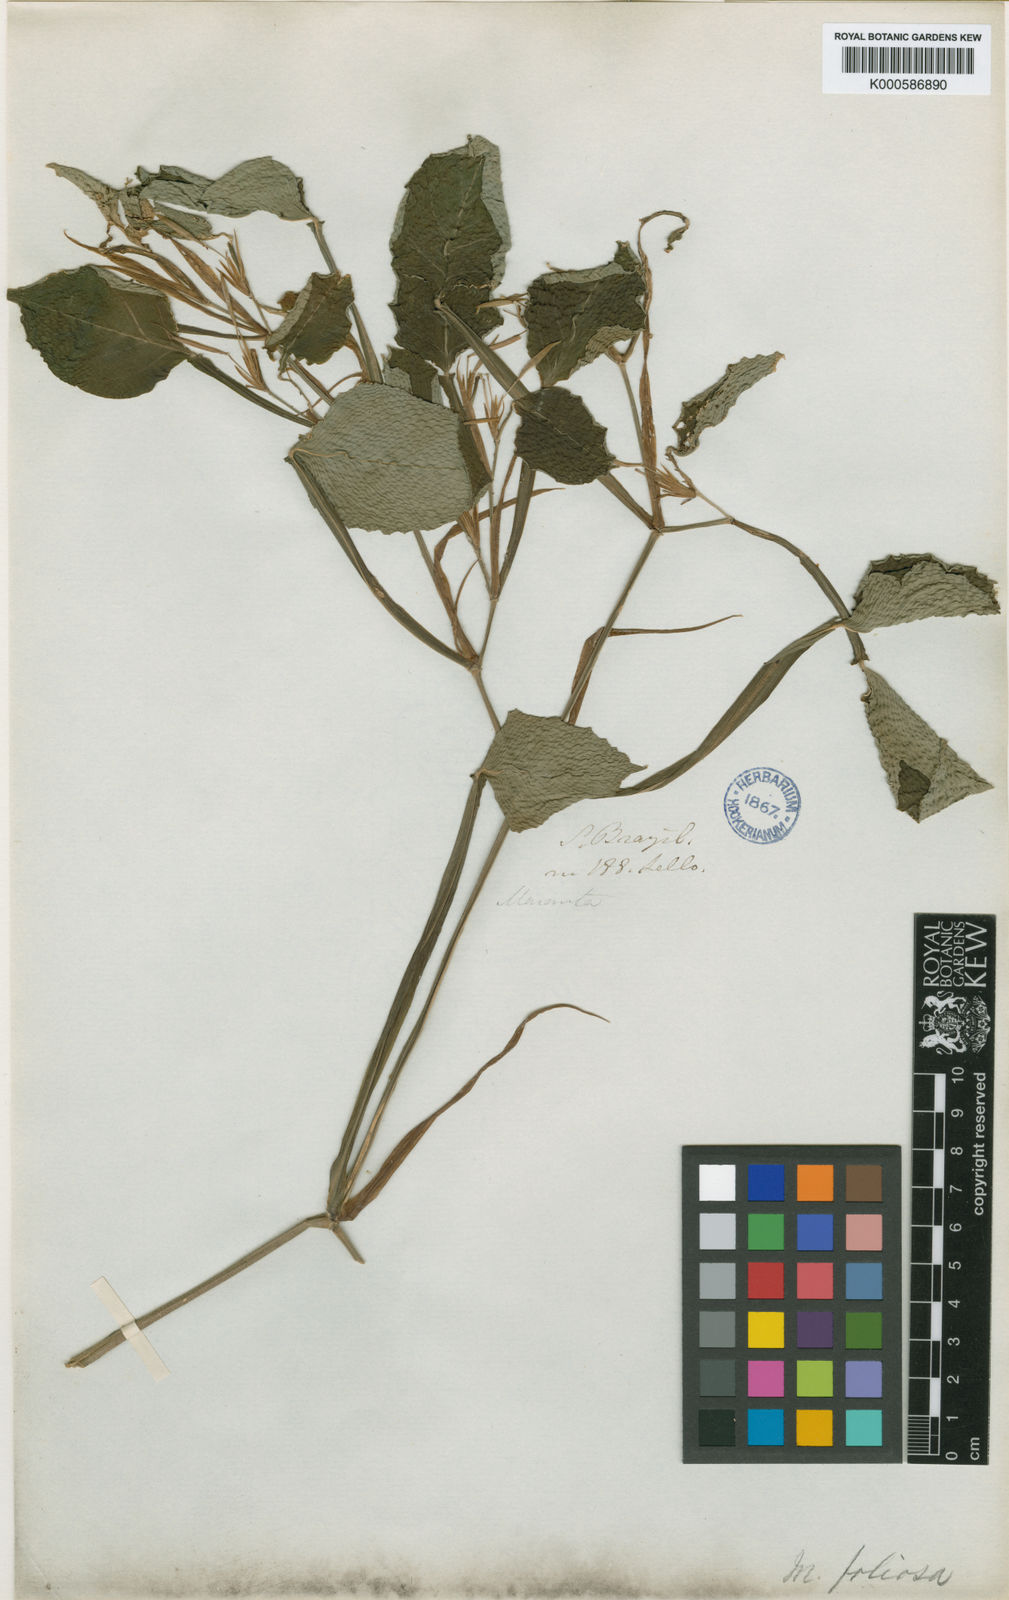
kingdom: Plantae
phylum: Tracheophyta
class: Liliopsida
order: Zingiberales
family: Marantaceae
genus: Maranta
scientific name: Maranta
